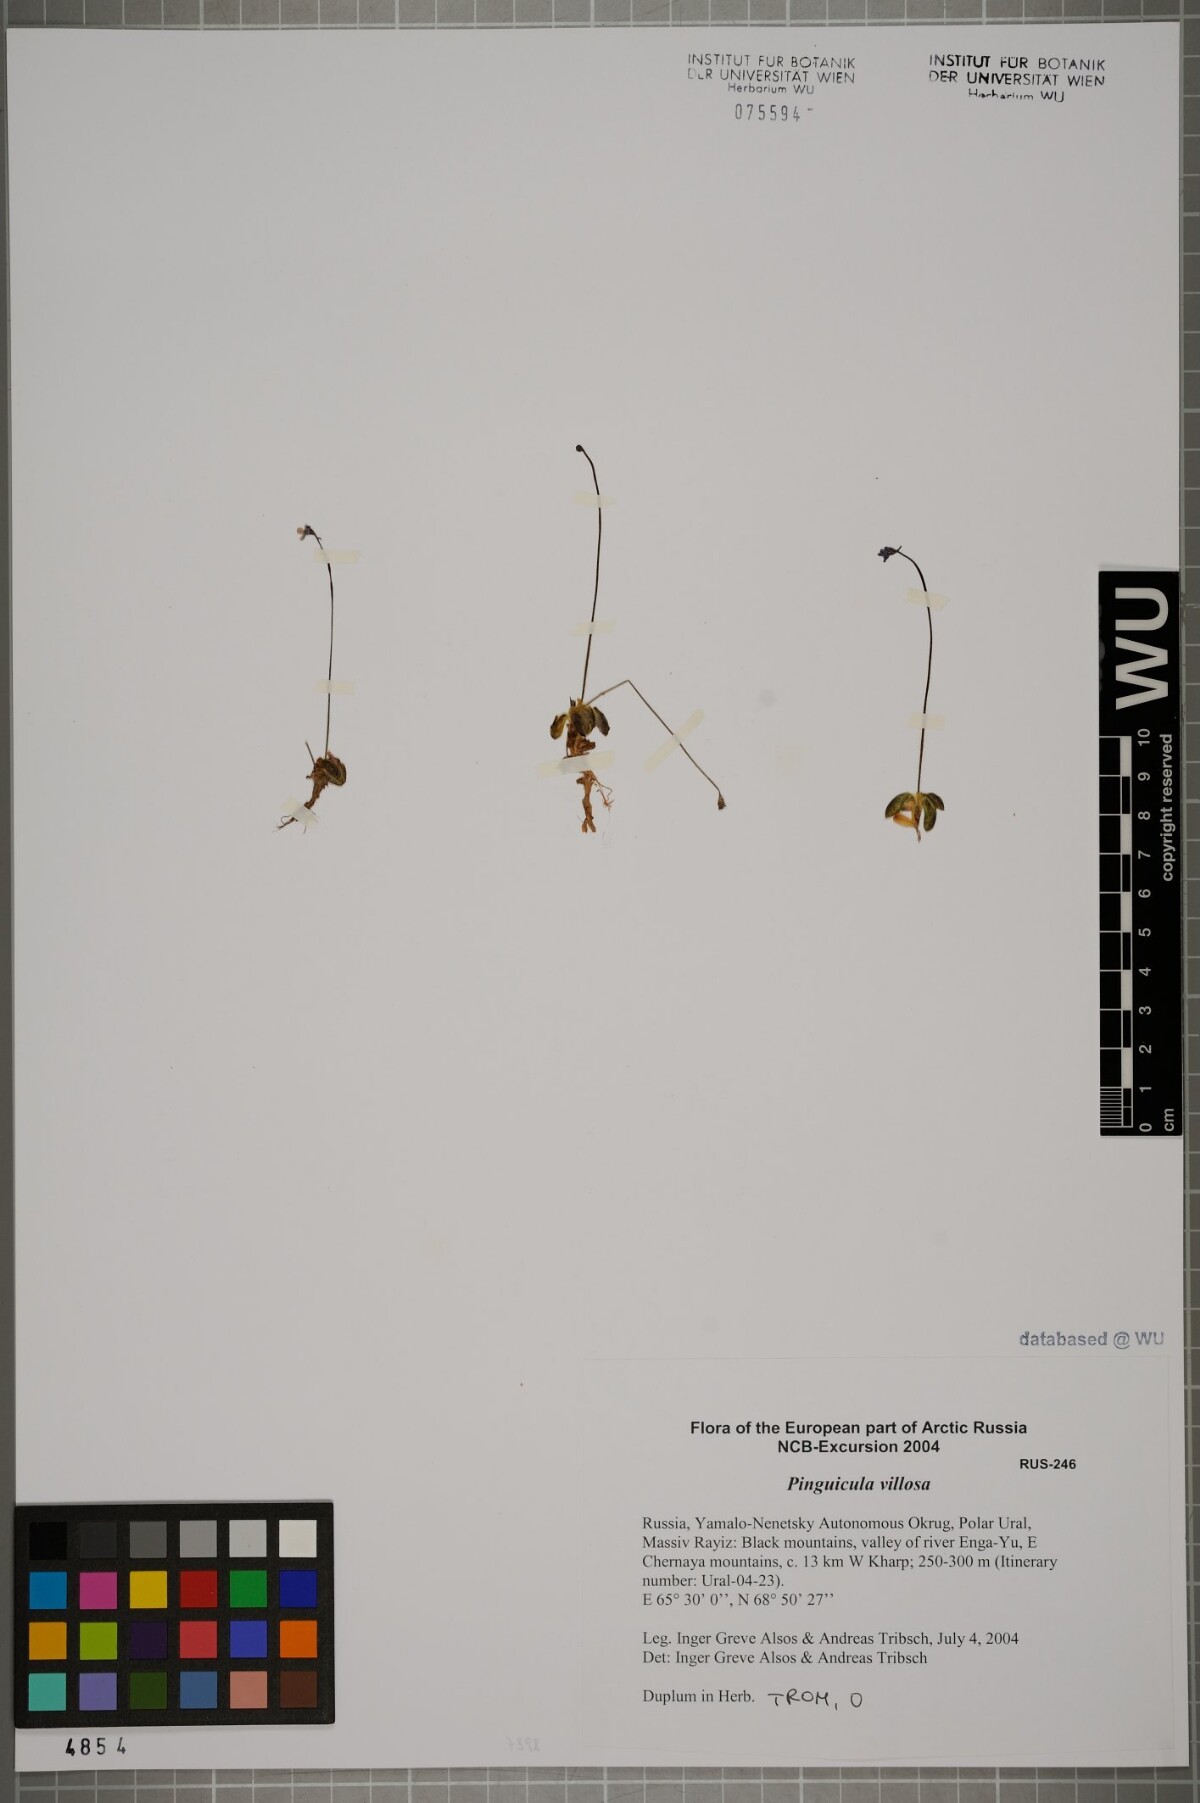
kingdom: Plantae
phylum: Tracheophyta
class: Magnoliopsida
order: Lamiales
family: Lentibulariaceae
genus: Pinguicula
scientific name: Pinguicula villosa
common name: Hairy butterwort
